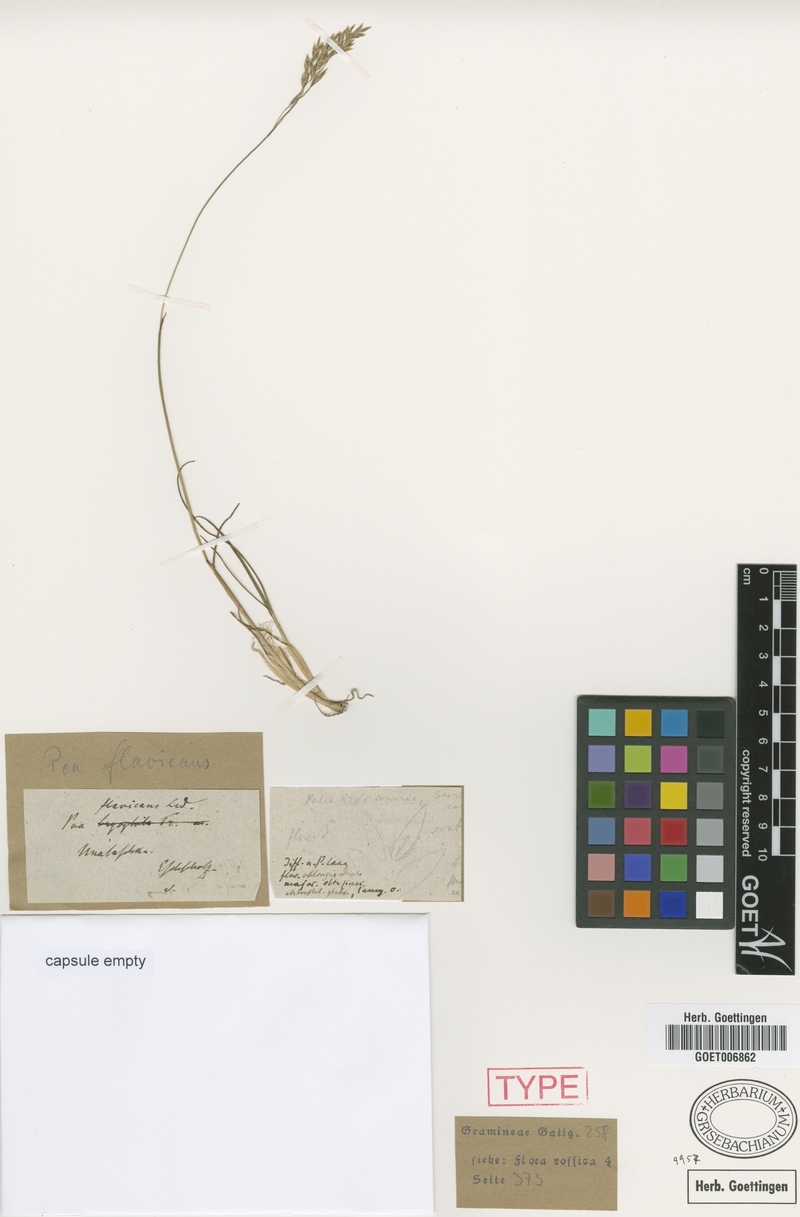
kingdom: Plantae
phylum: Tracheophyta
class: Liliopsida
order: Poales
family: Poaceae
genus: Poa
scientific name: Poa stenantha
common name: Narrow-flowered bluegrass
